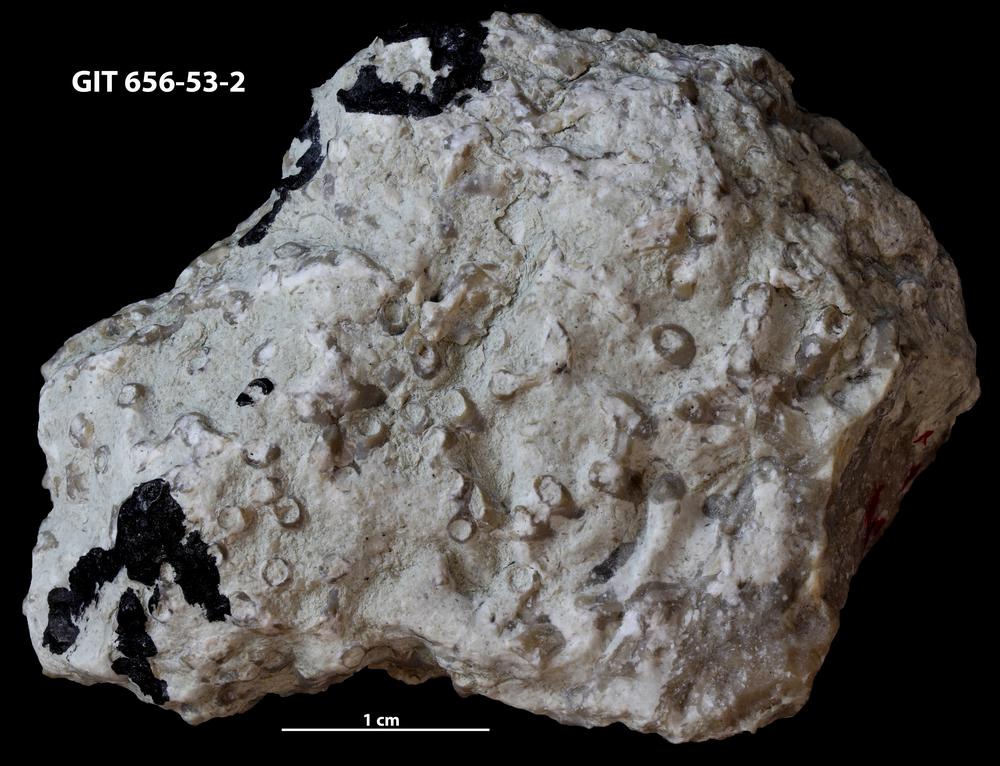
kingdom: Animalia
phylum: Cnidaria
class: Anthozoa
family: Auloporidae
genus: Aulopora
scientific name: Aulopora
